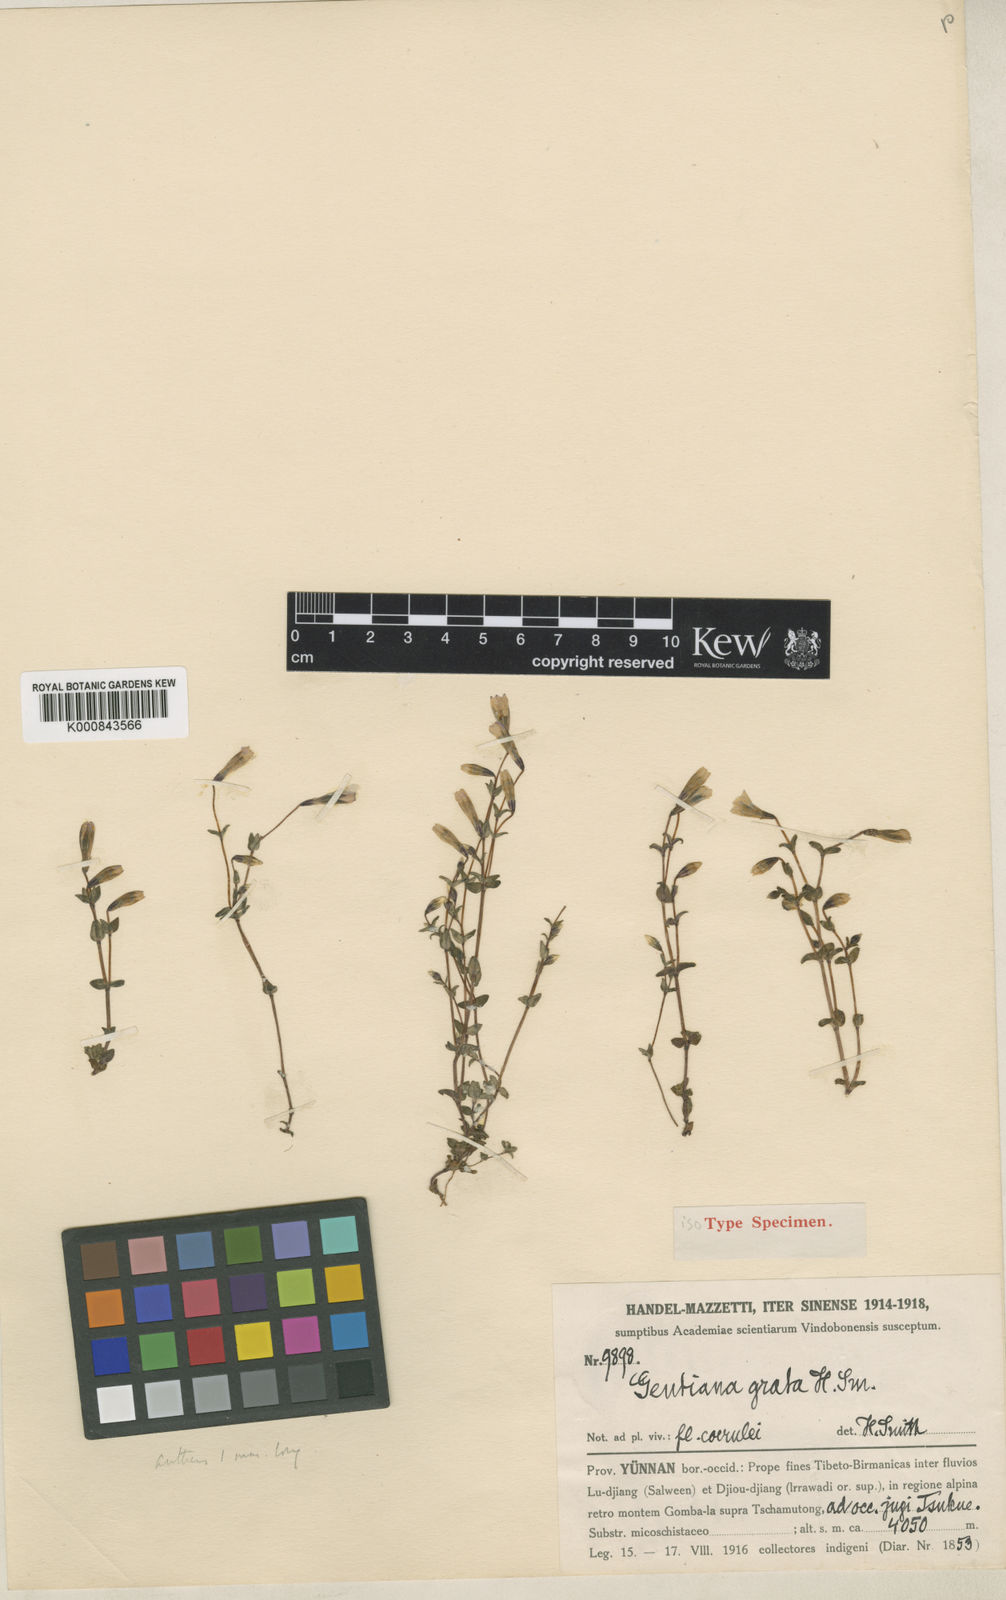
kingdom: Plantae
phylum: Tracheophyta
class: Magnoliopsida
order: Gentianales
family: Gentianaceae
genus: Gentiana
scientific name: Gentiana grata
